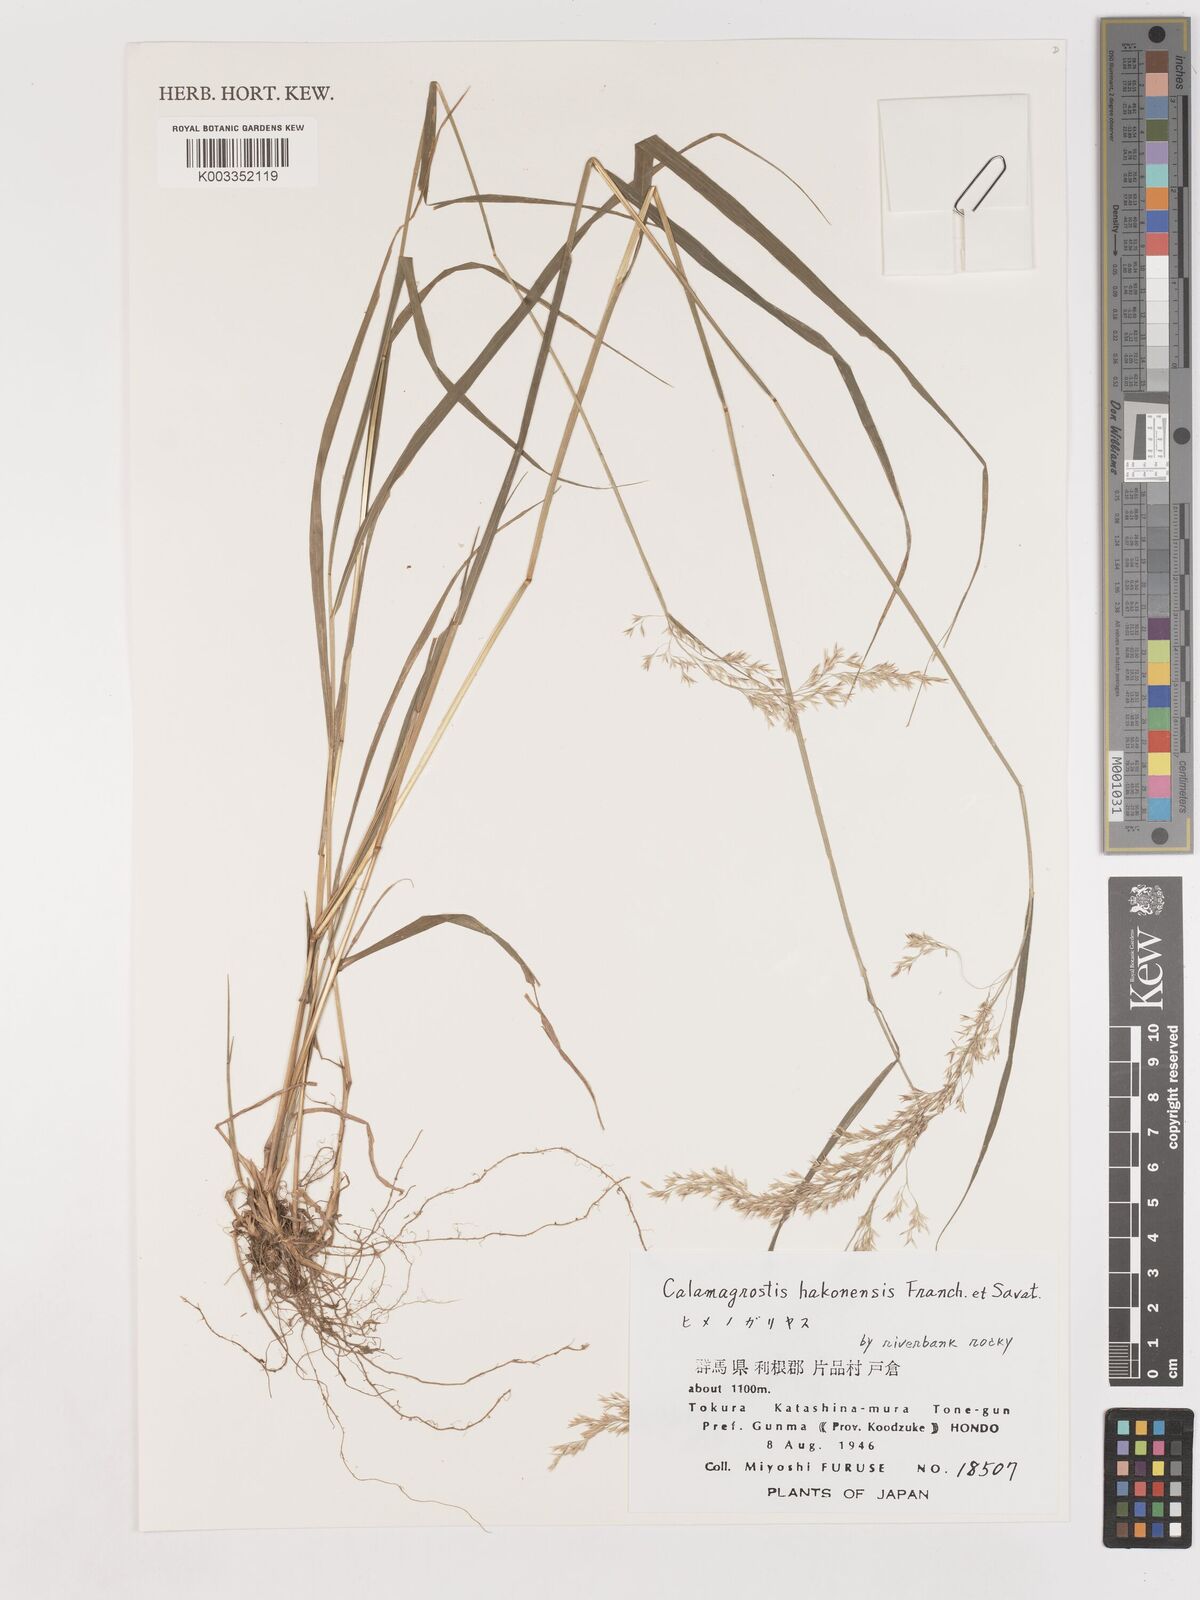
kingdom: Plantae
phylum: Tracheophyta
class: Liliopsida
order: Poales
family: Poaceae
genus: Calamagrostis
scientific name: Calamagrostis hakonensis
